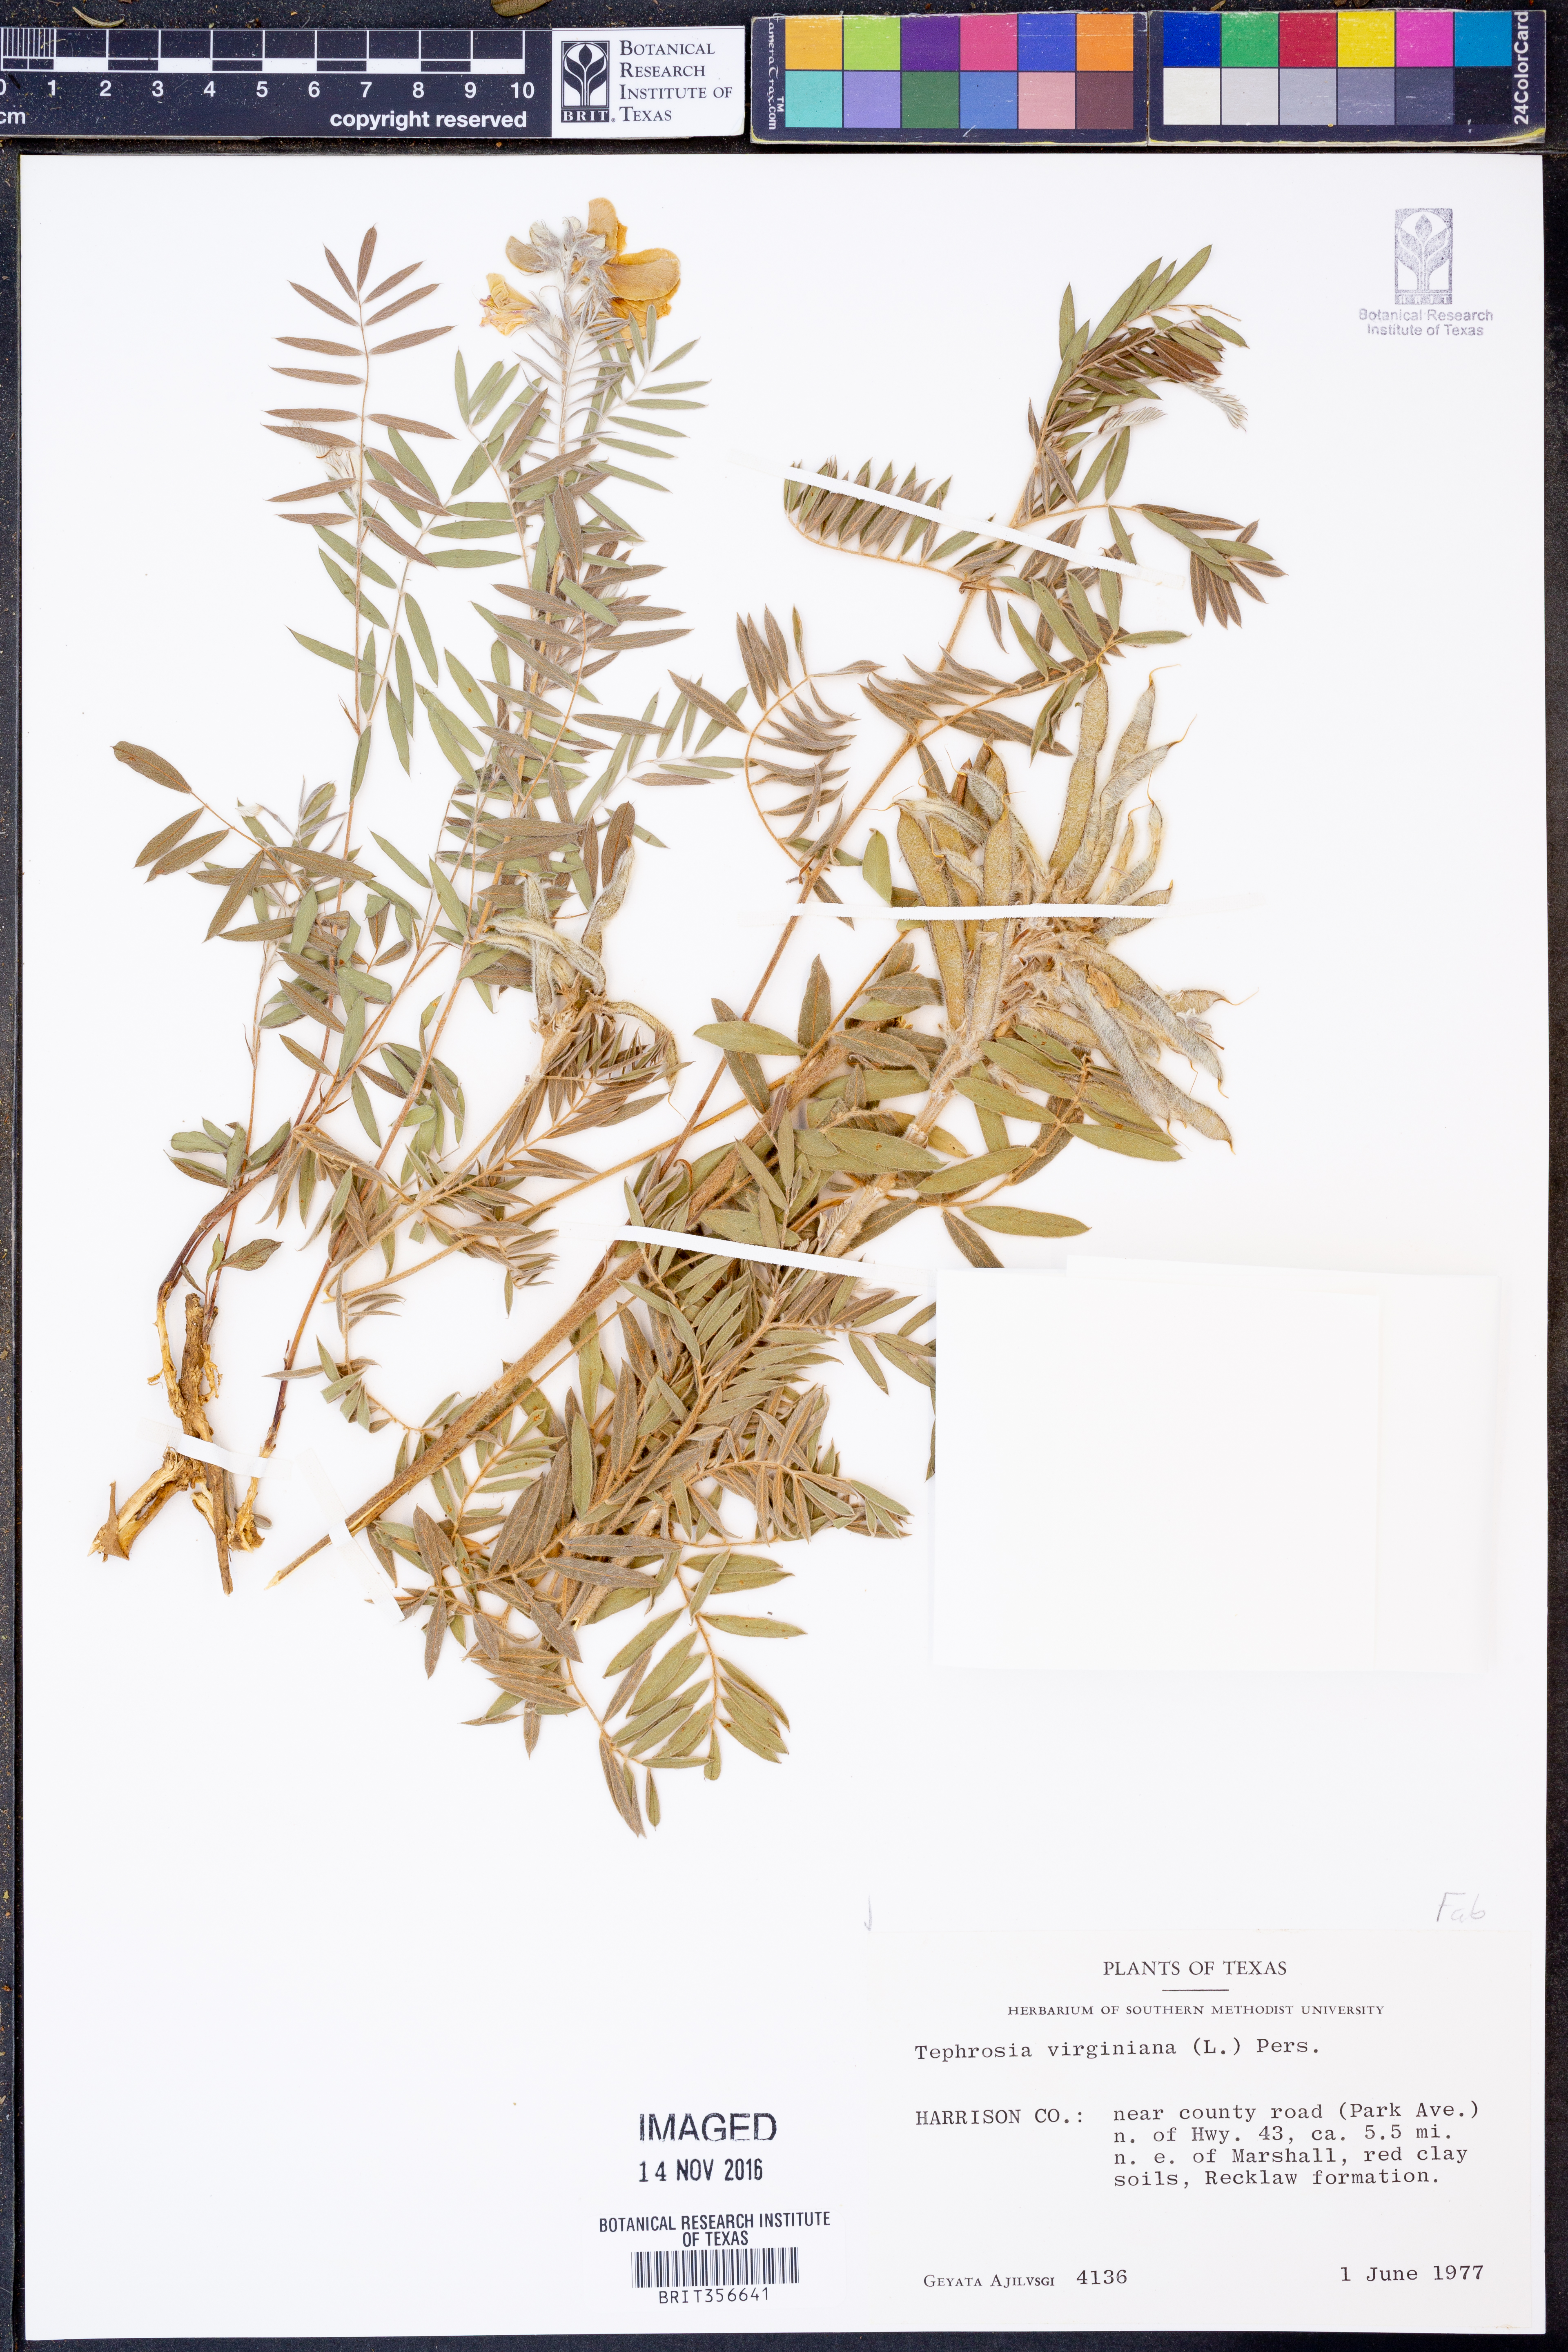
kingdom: Plantae
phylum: Tracheophyta
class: Magnoliopsida
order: Fabales
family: Fabaceae
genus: Tephrosia
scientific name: Tephrosia virginiana
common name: Rabbit-pea
